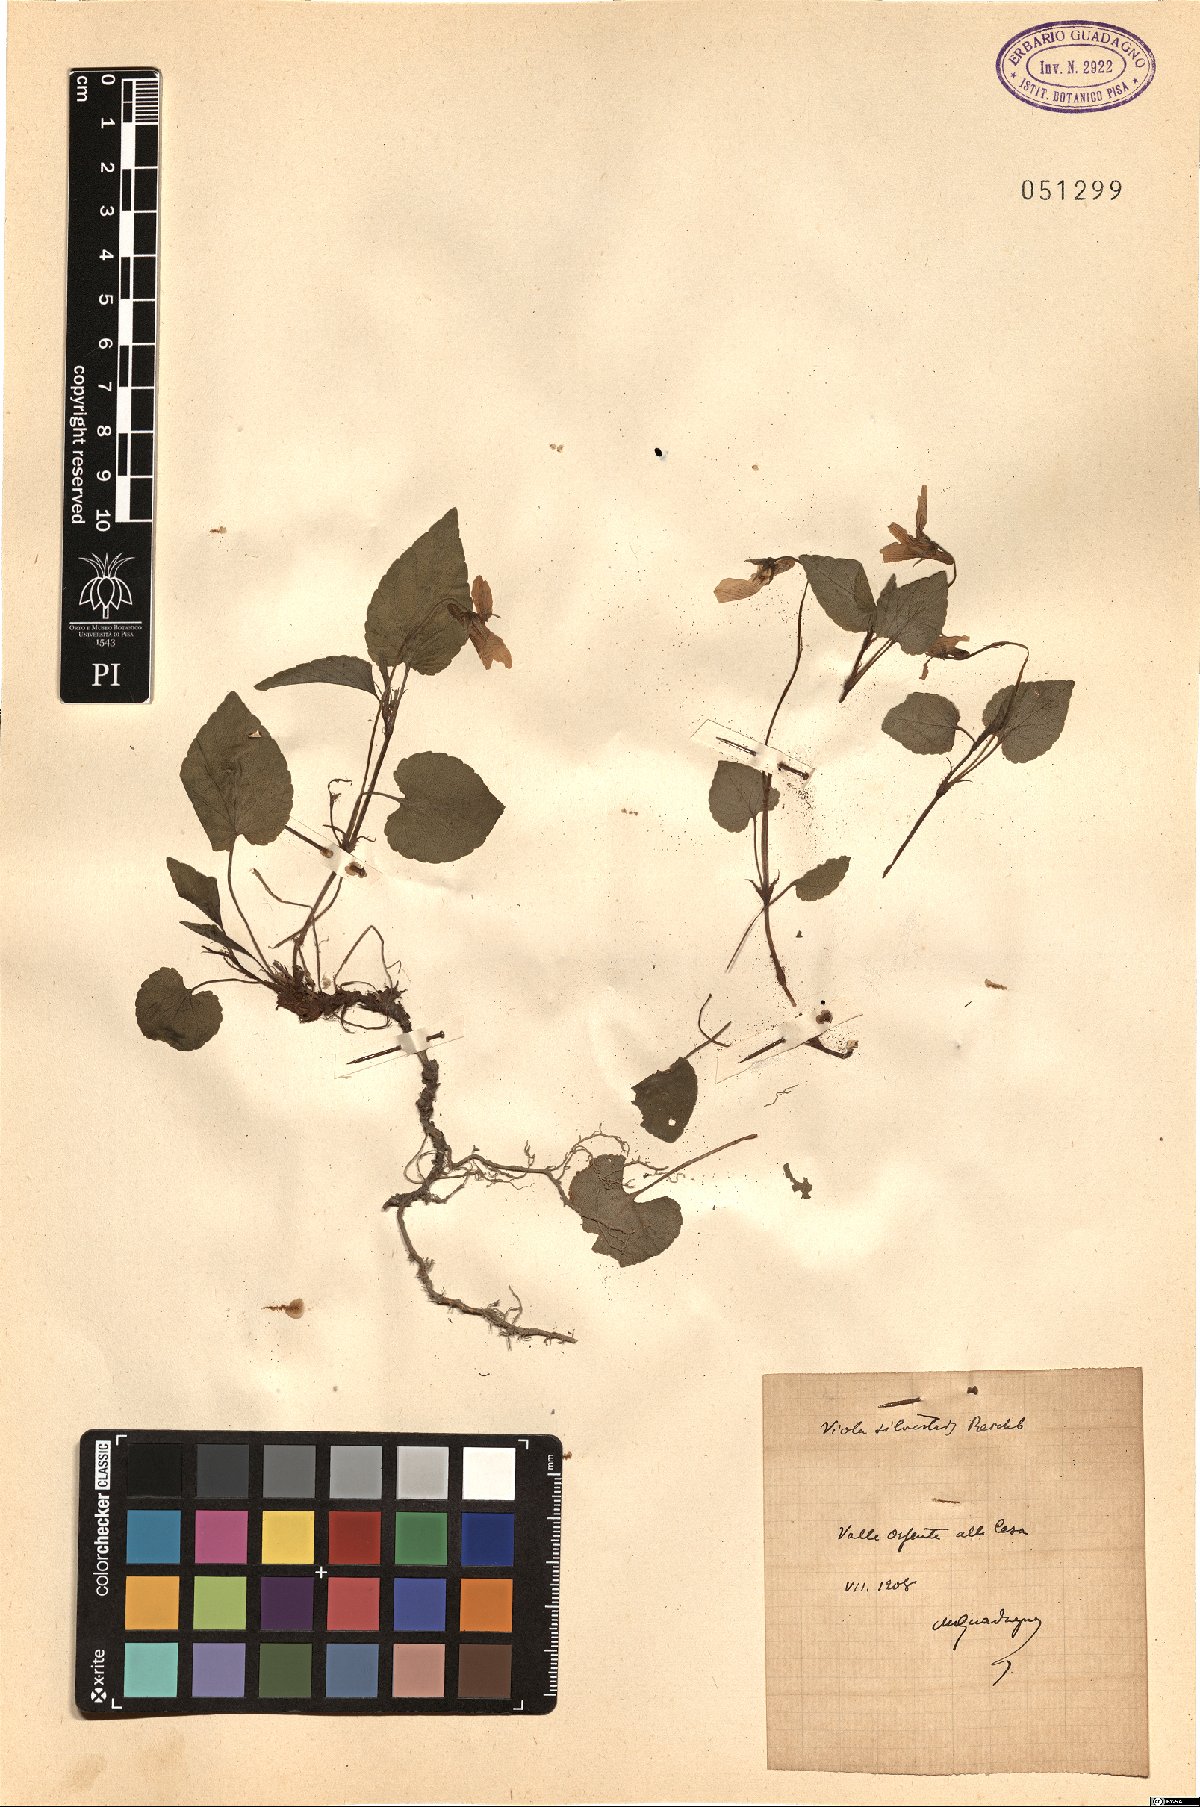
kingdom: Plantae
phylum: Tracheophyta
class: Magnoliopsida
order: Malpighiales
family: Violaceae
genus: Viola
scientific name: Viola canina
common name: Heath dog-violet
